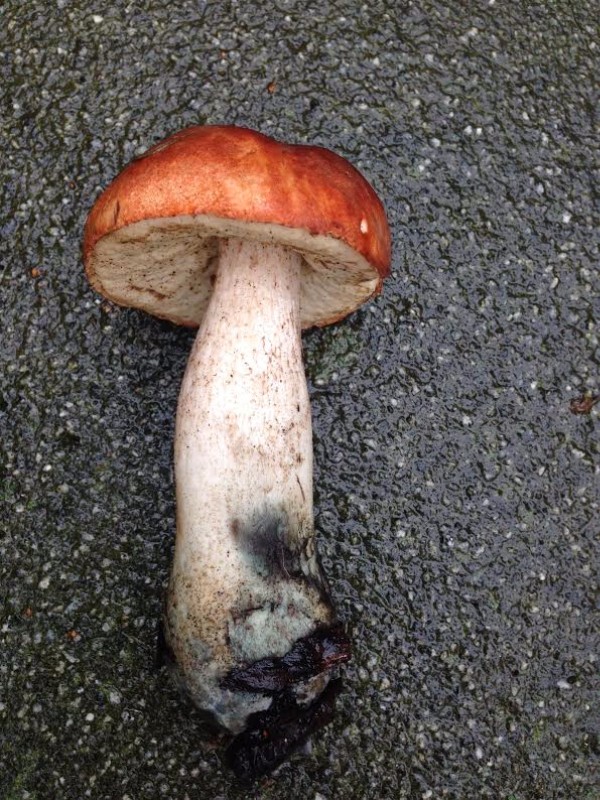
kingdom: Fungi
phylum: Basidiomycota
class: Agaricomycetes
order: Boletales
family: Boletaceae
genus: Leccinum
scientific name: Leccinum aurantiacum
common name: rustrød skælrørhat
